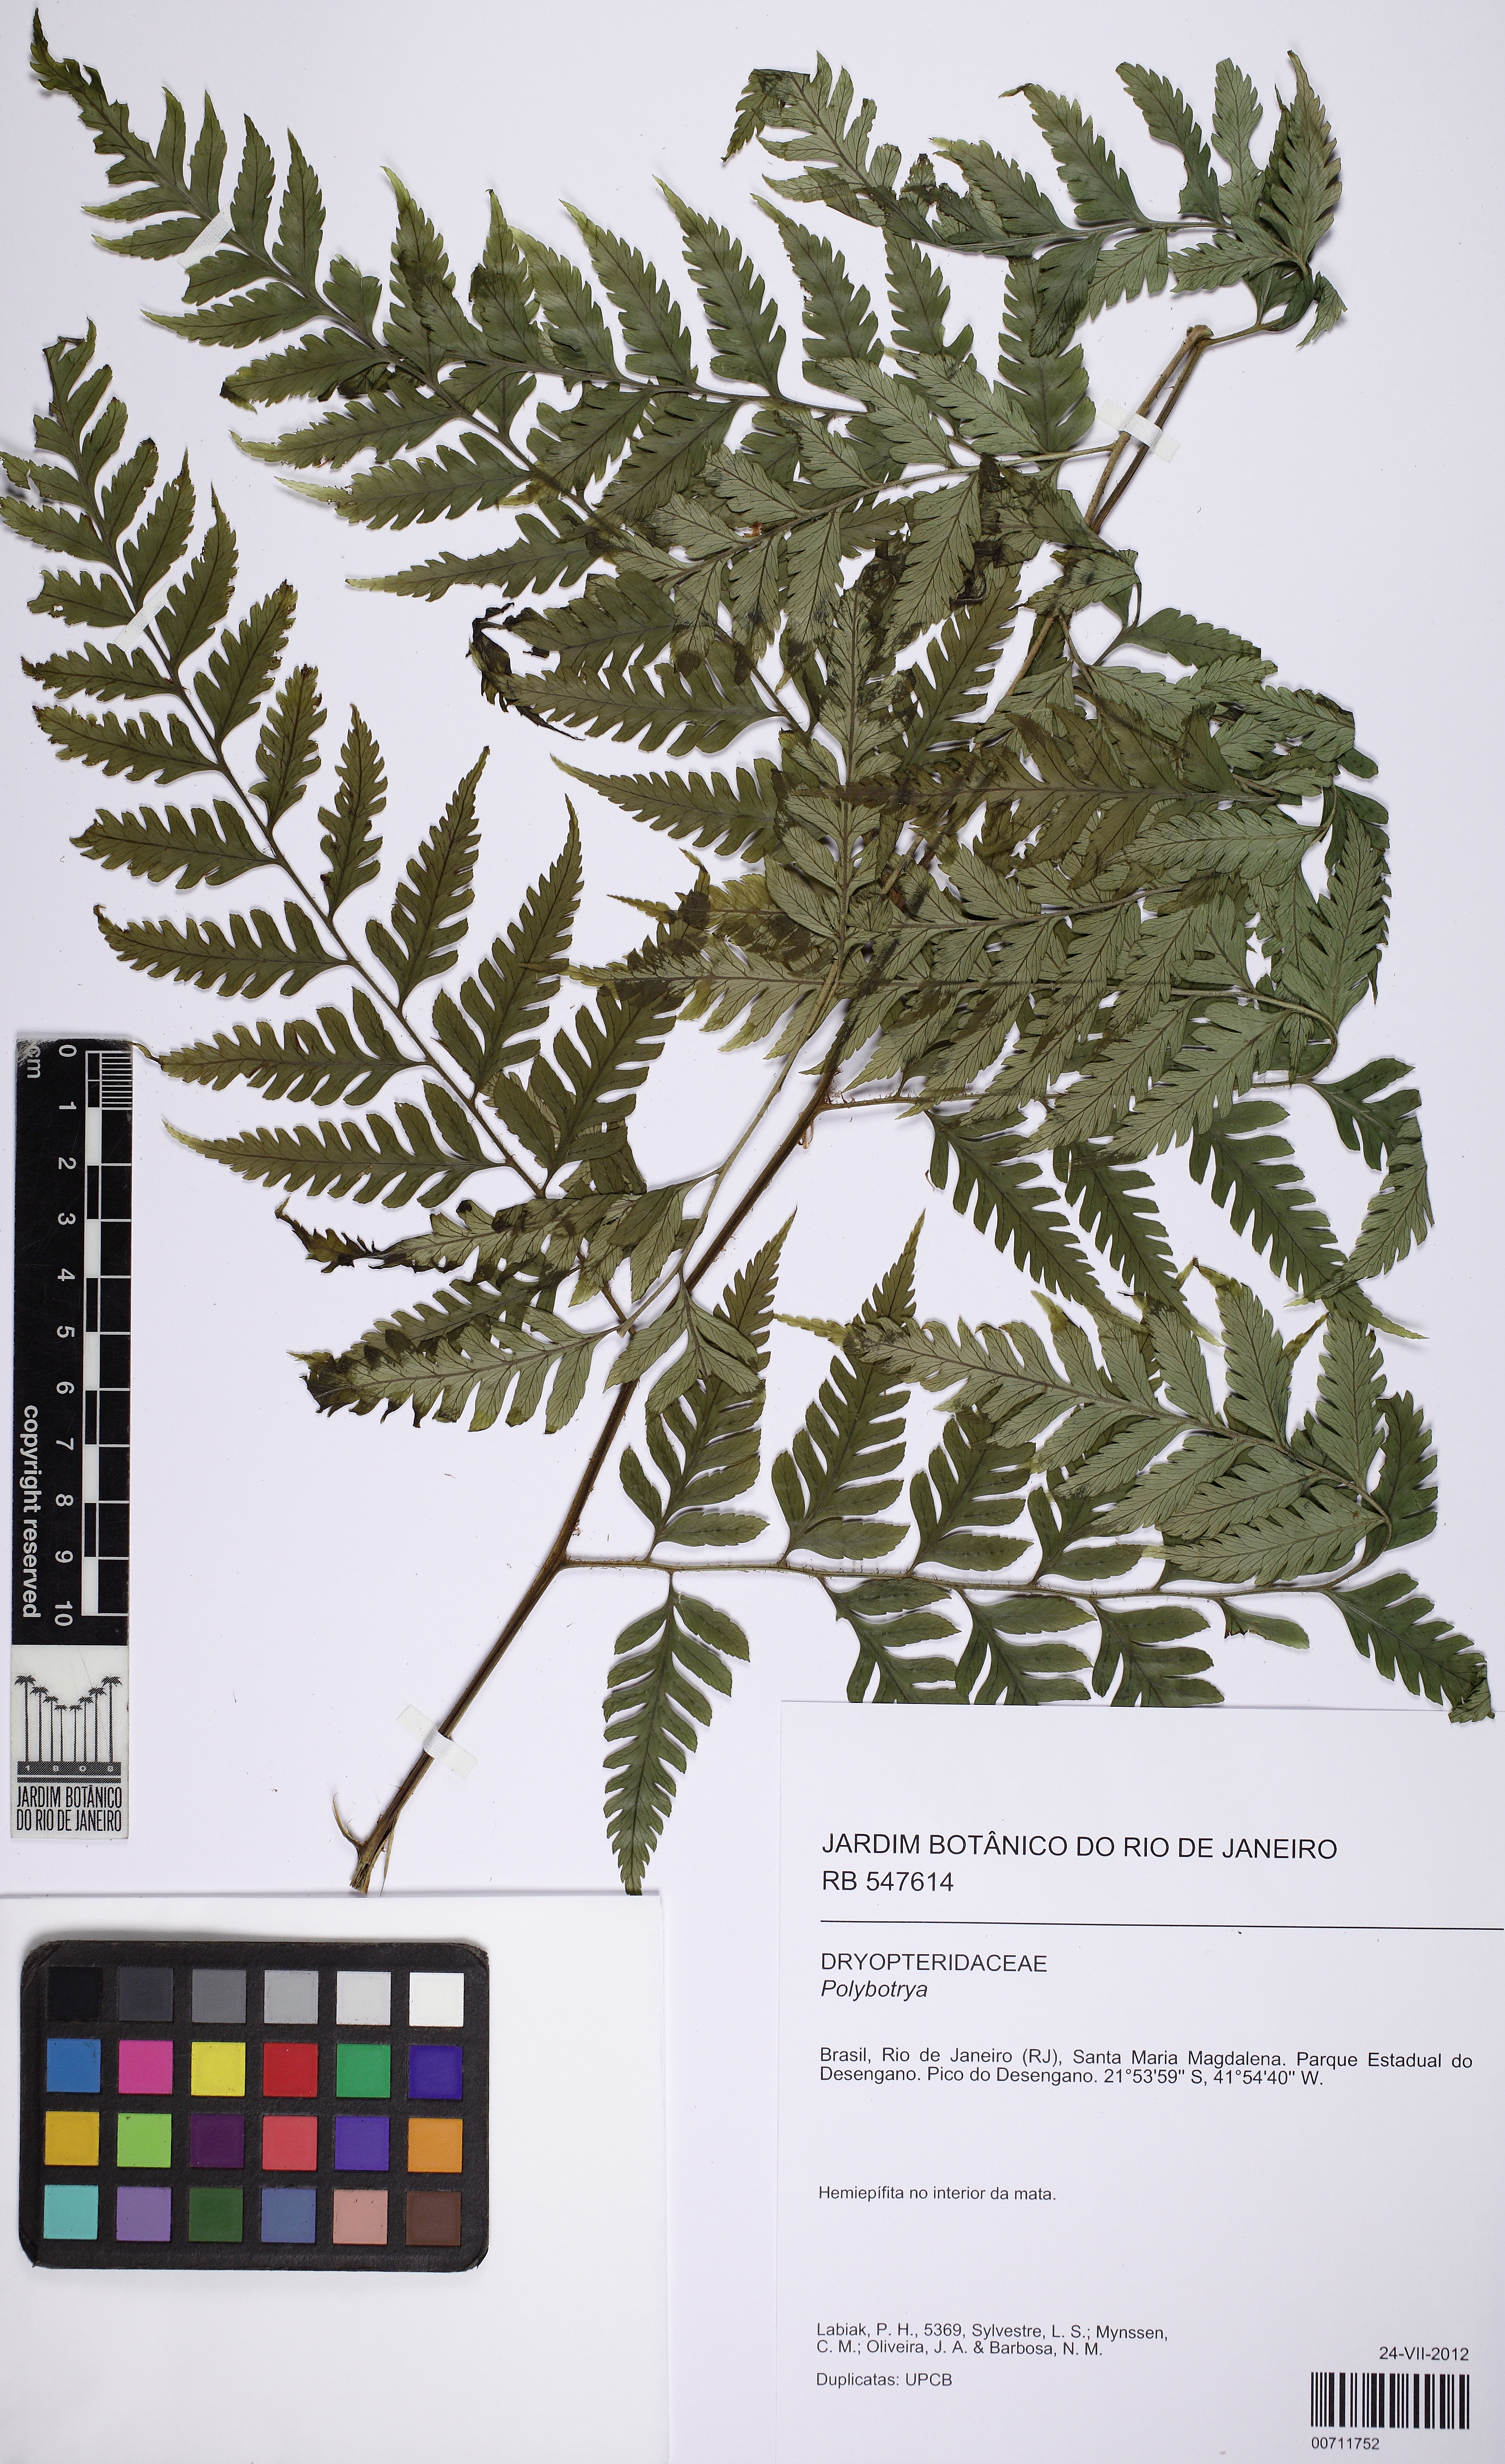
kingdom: Plantae
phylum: Tracheophyta
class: Polypodiopsida
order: Polypodiales
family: Dryopteridaceae
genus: Polybotrya
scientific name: Polybotrya speciosa
